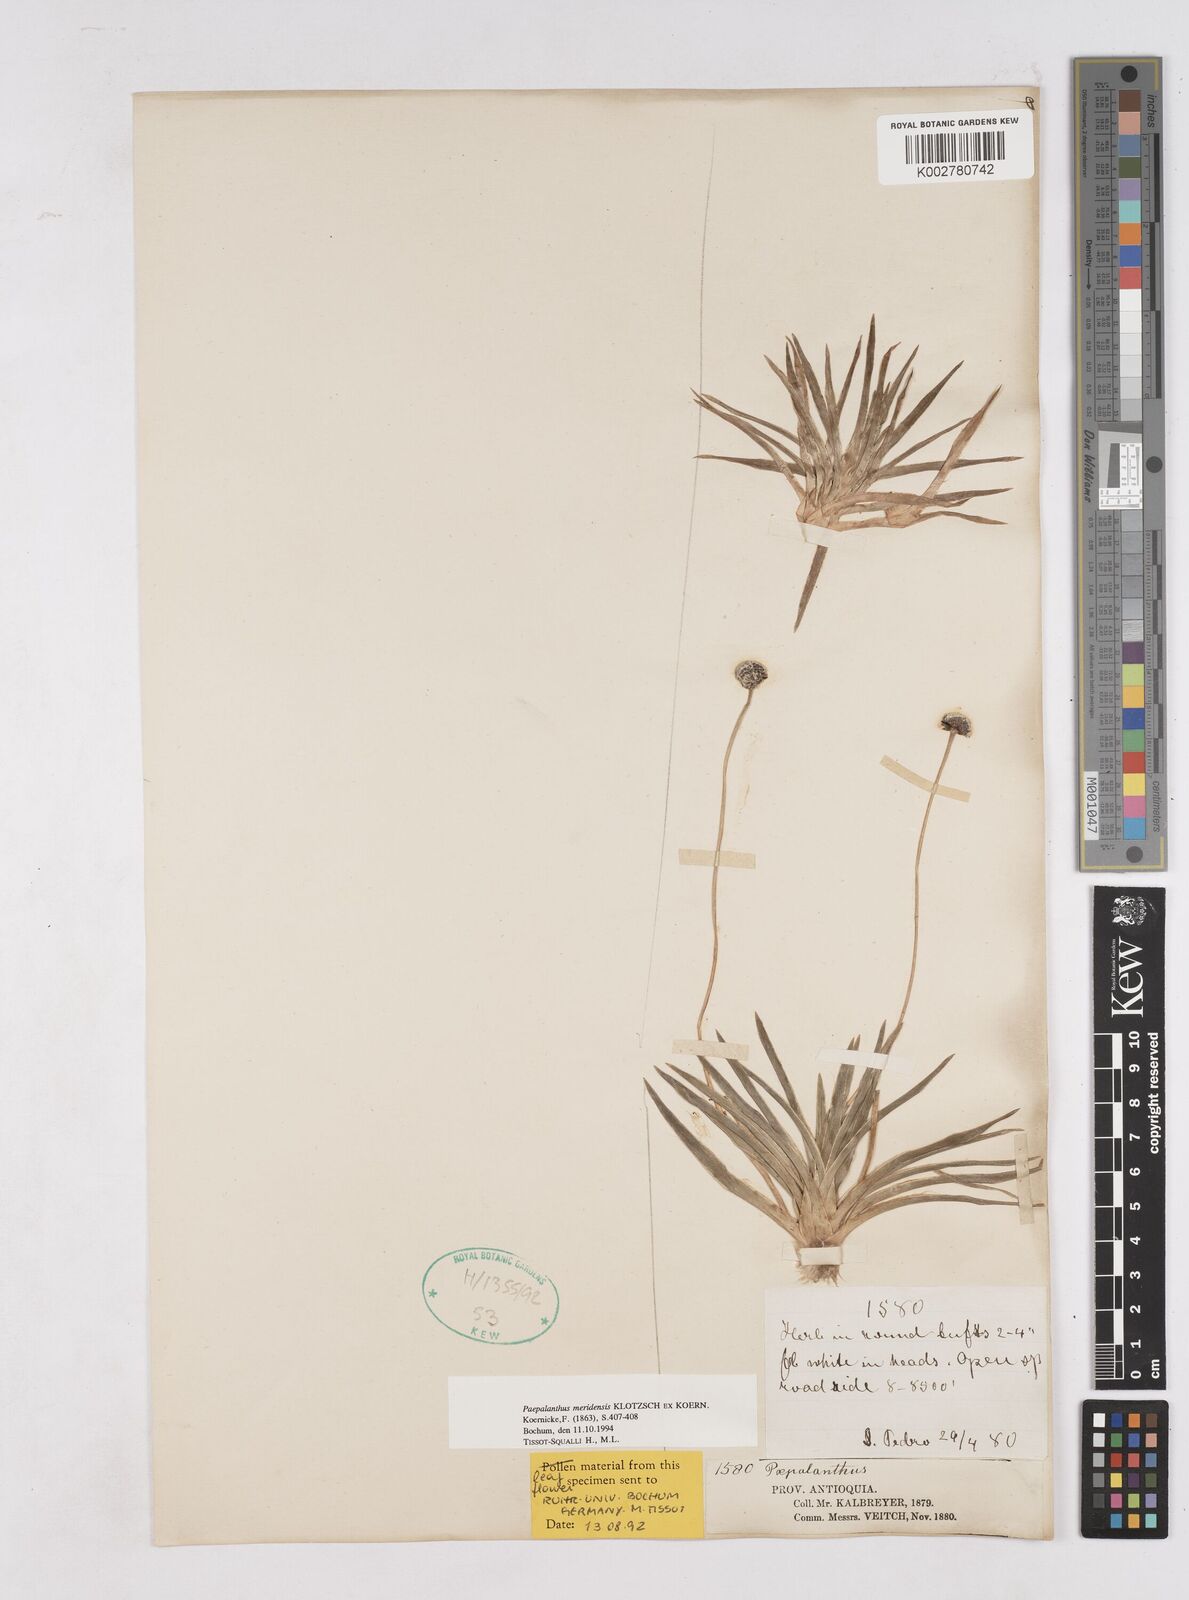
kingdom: Plantae
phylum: Tracheophyta
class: Liliopsida
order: Poales
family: Eriocaulaceae
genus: Paepalanthus
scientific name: Paepalanthus meridensis
